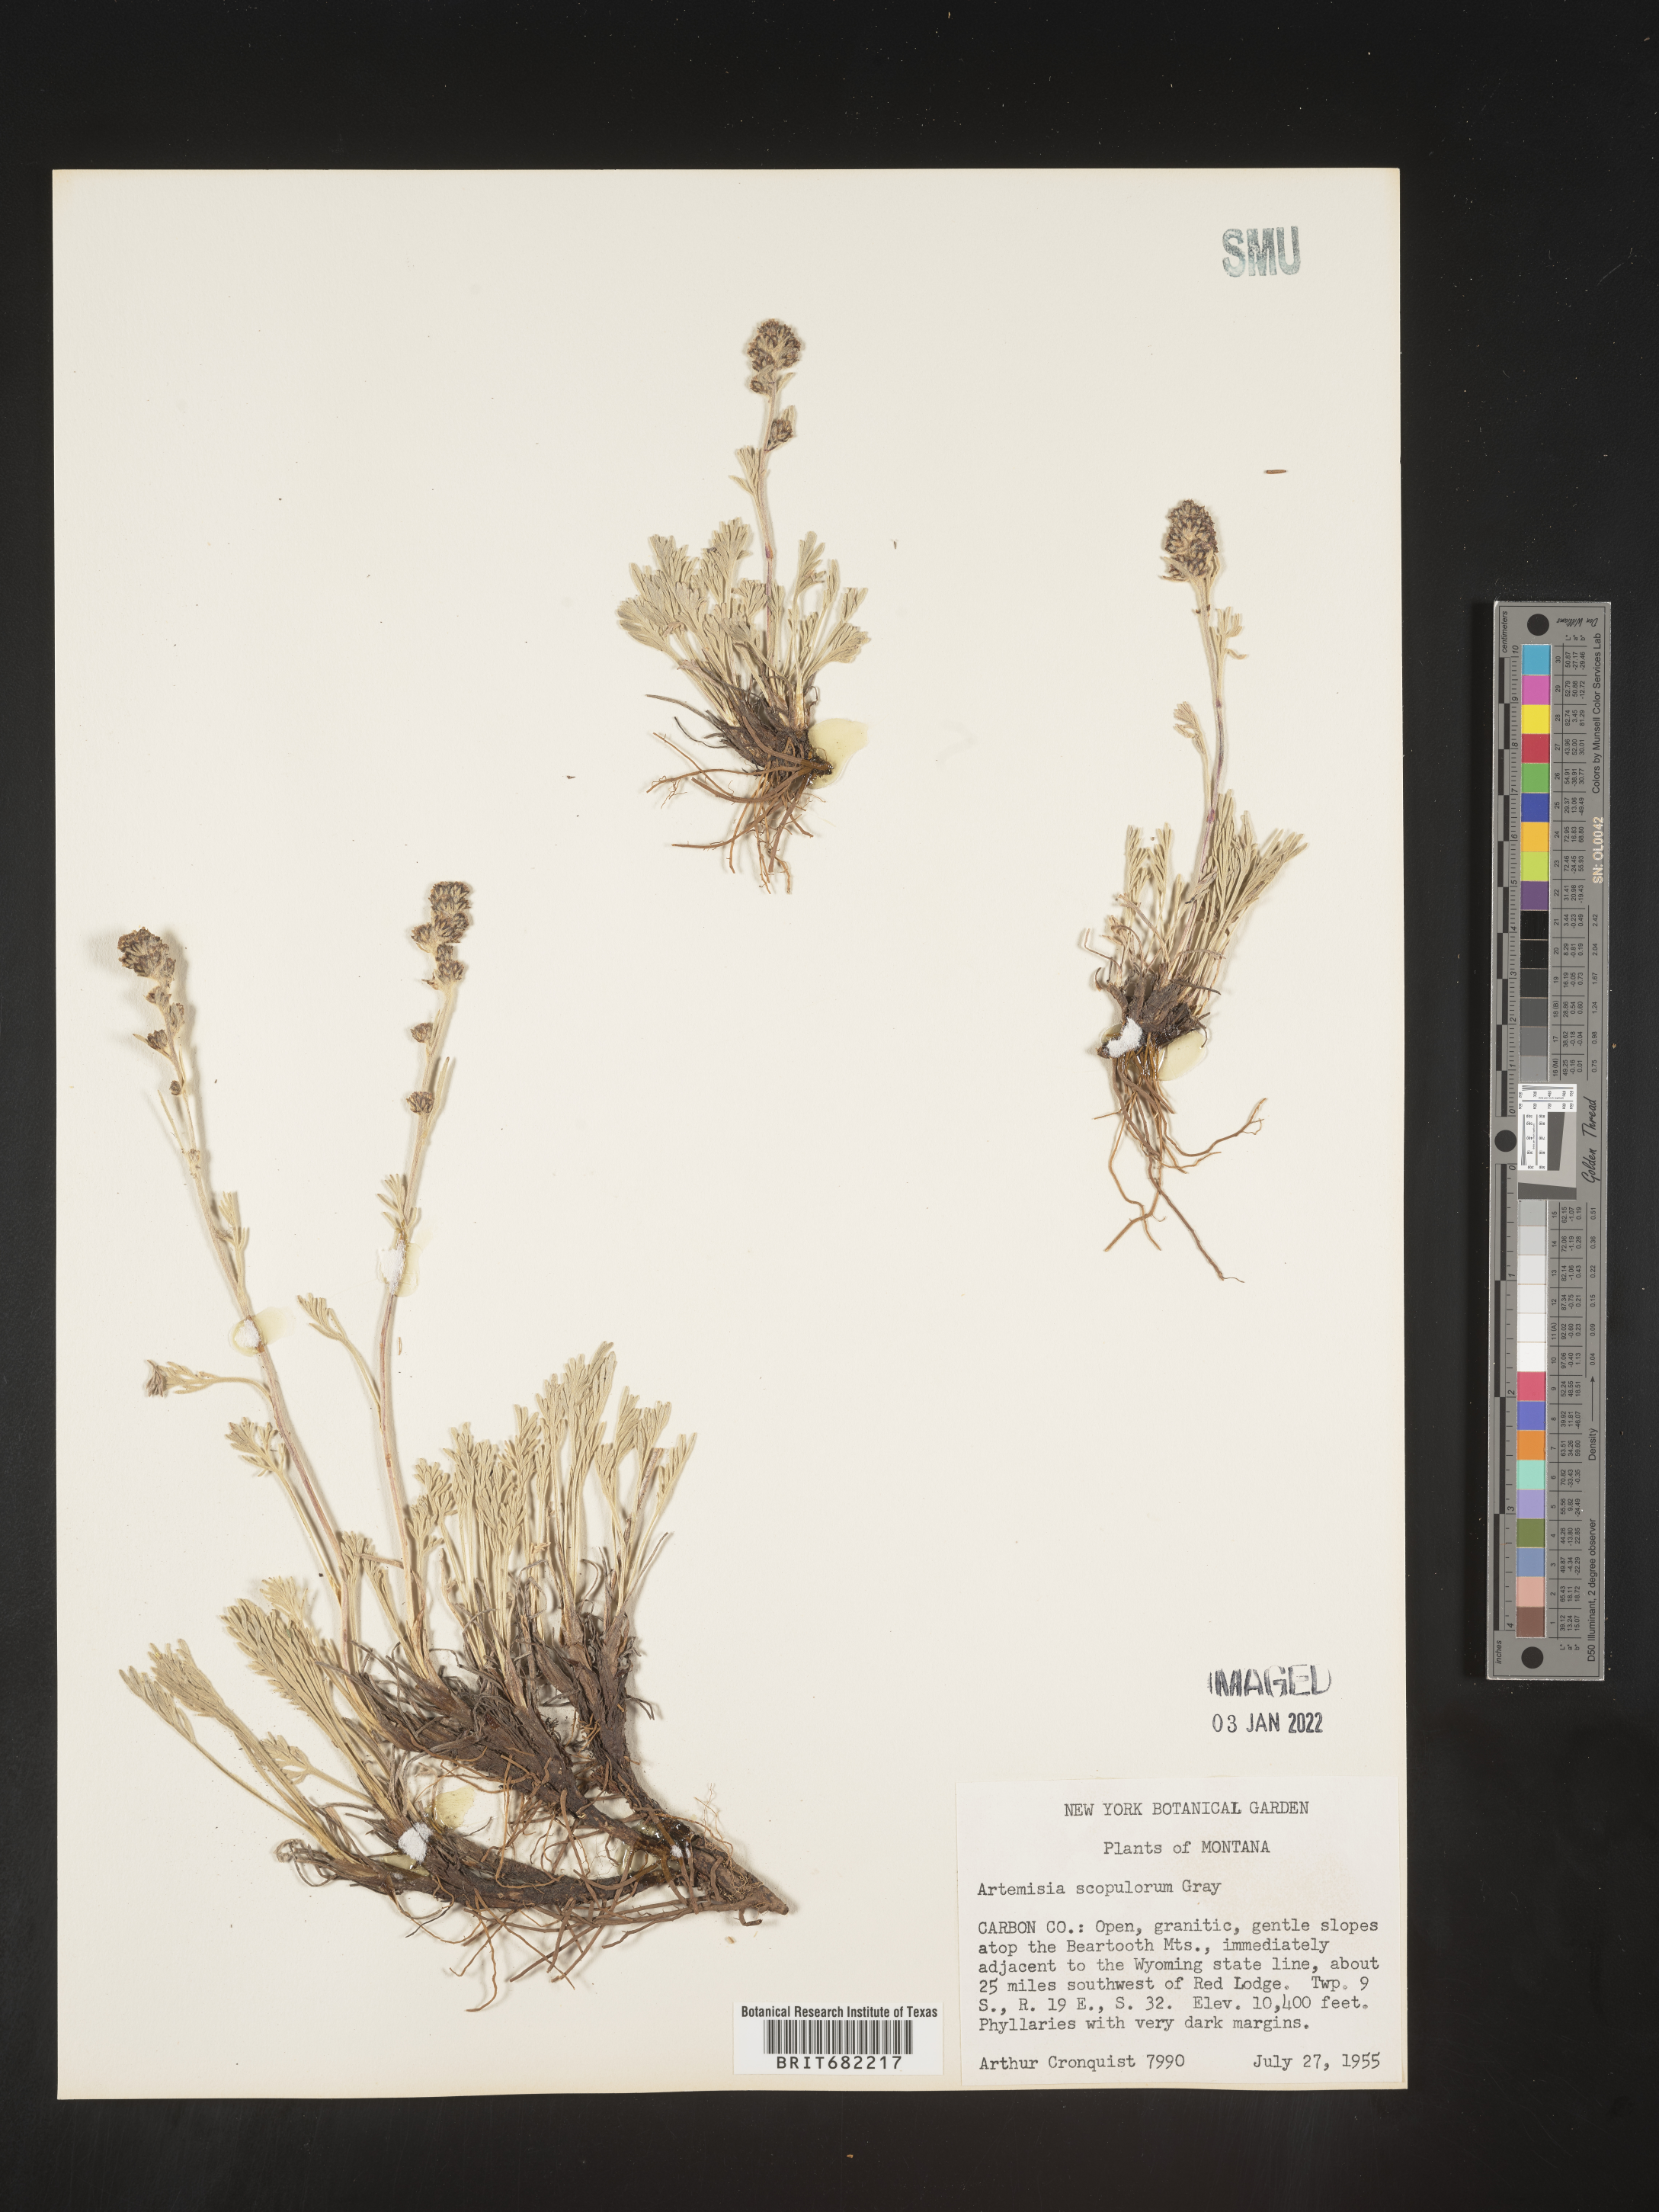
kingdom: Plantae
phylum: Tracheophyta
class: Magnoliopsida
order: Asterales
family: Asteraceae
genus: Artemisia
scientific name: Artemisia scopulorum
